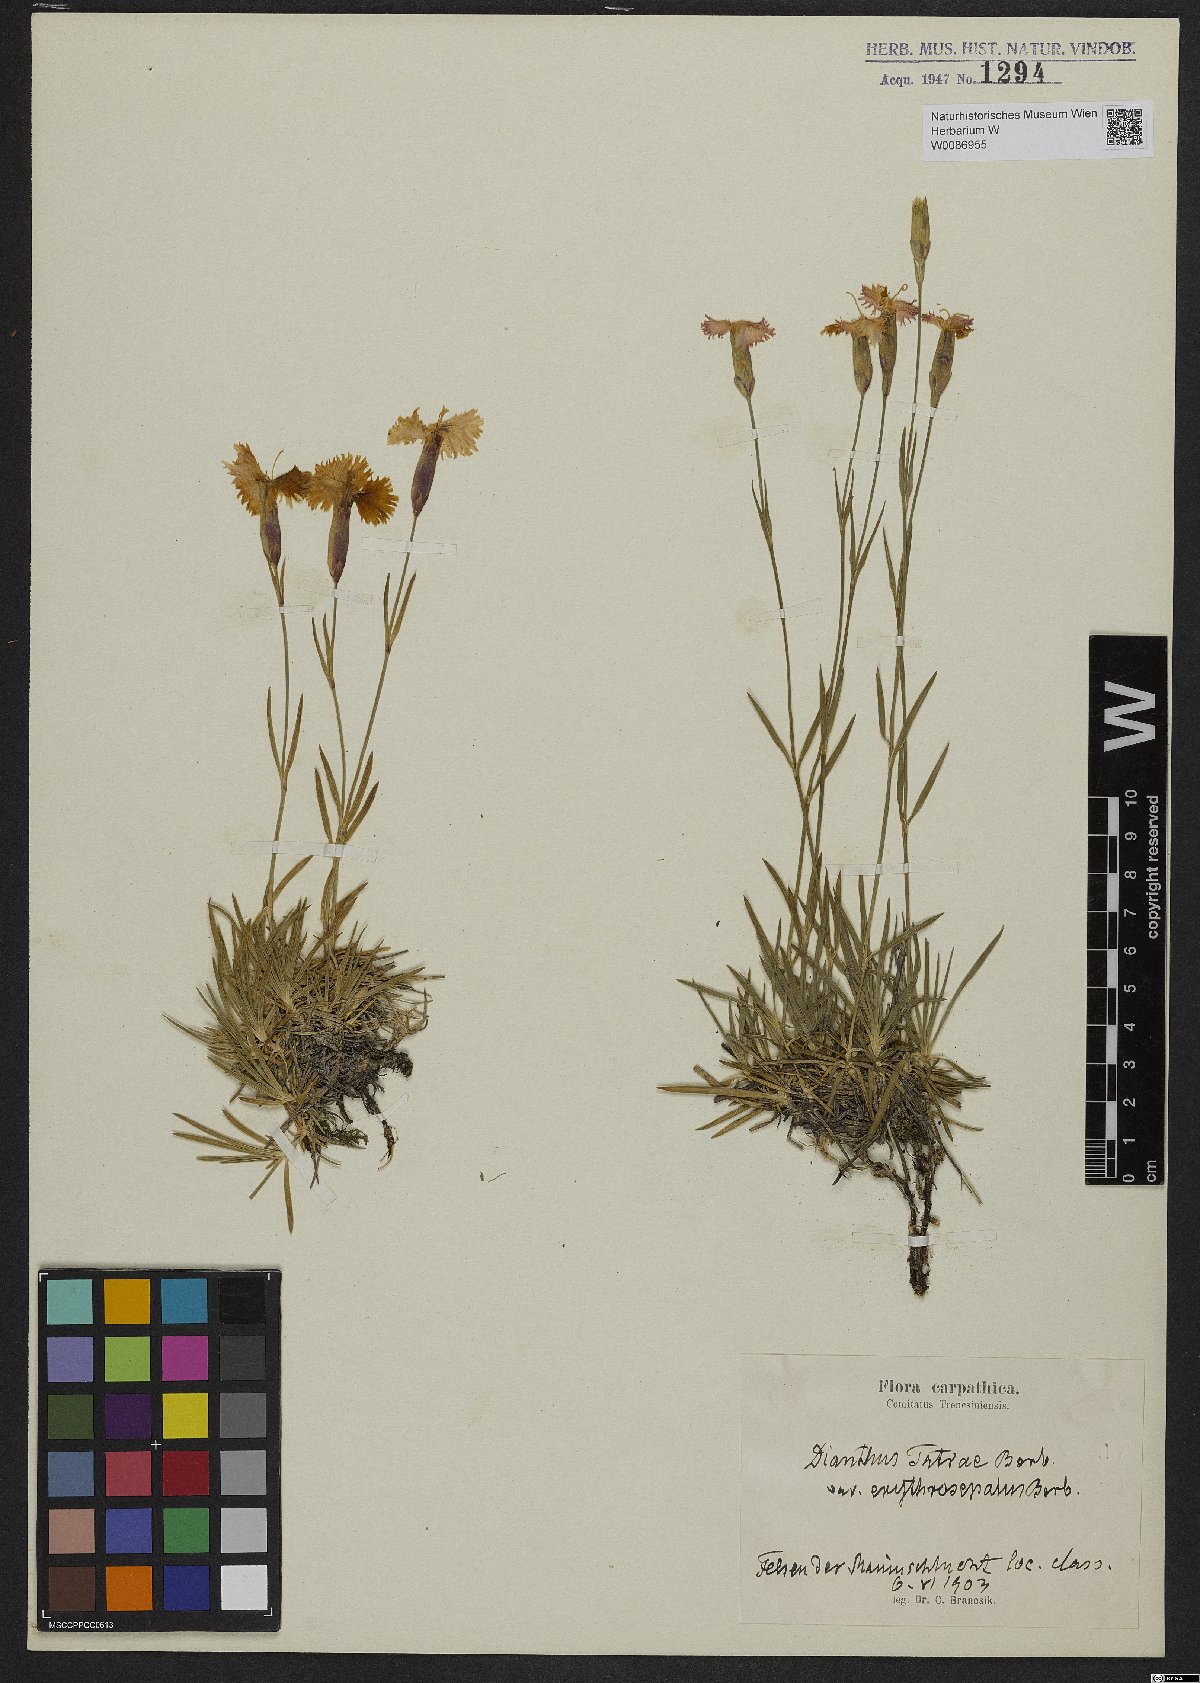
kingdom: Plantae
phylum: Tracheophyta
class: Magnoliopsida
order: Caryophyllales
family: Caryophyllaceae
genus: Dianthus
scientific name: Dianthus tatrae
